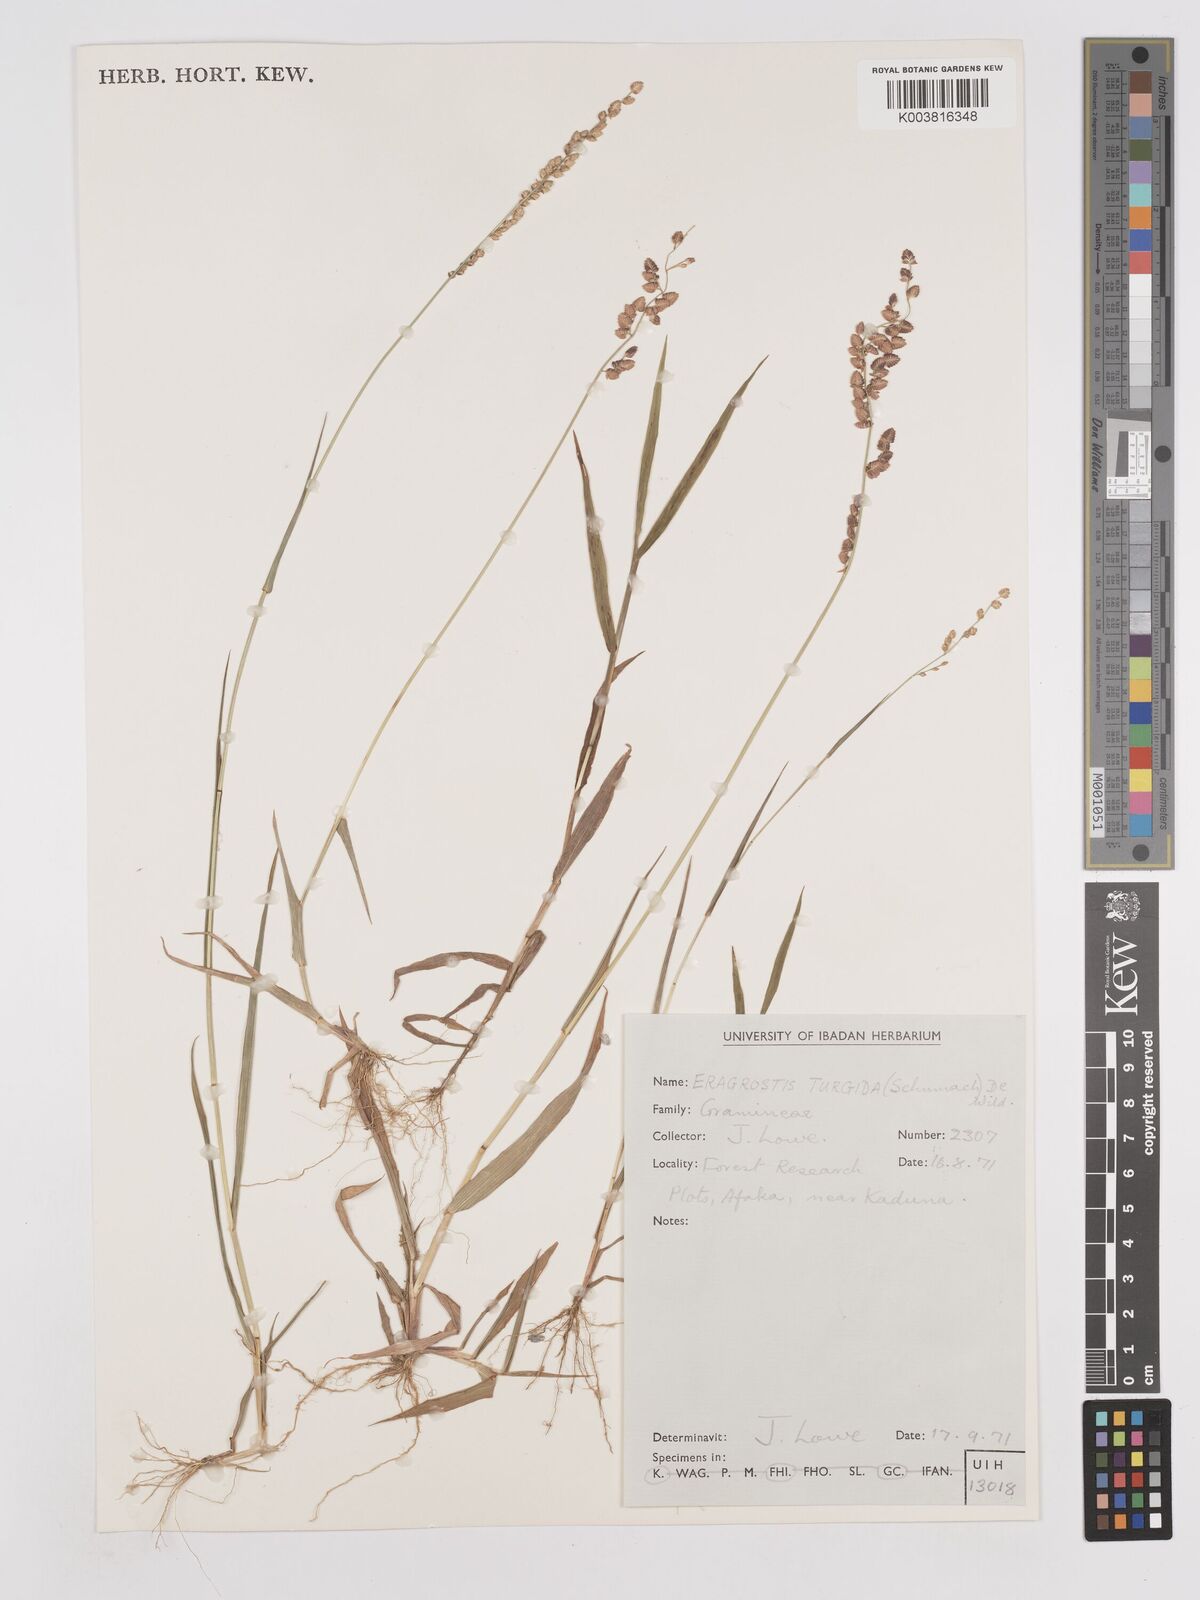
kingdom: Plantae
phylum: Tracheophyta
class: Liliopsida
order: Poales
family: Poaceae
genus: Eragrostis
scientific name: Eragrostis turgida
